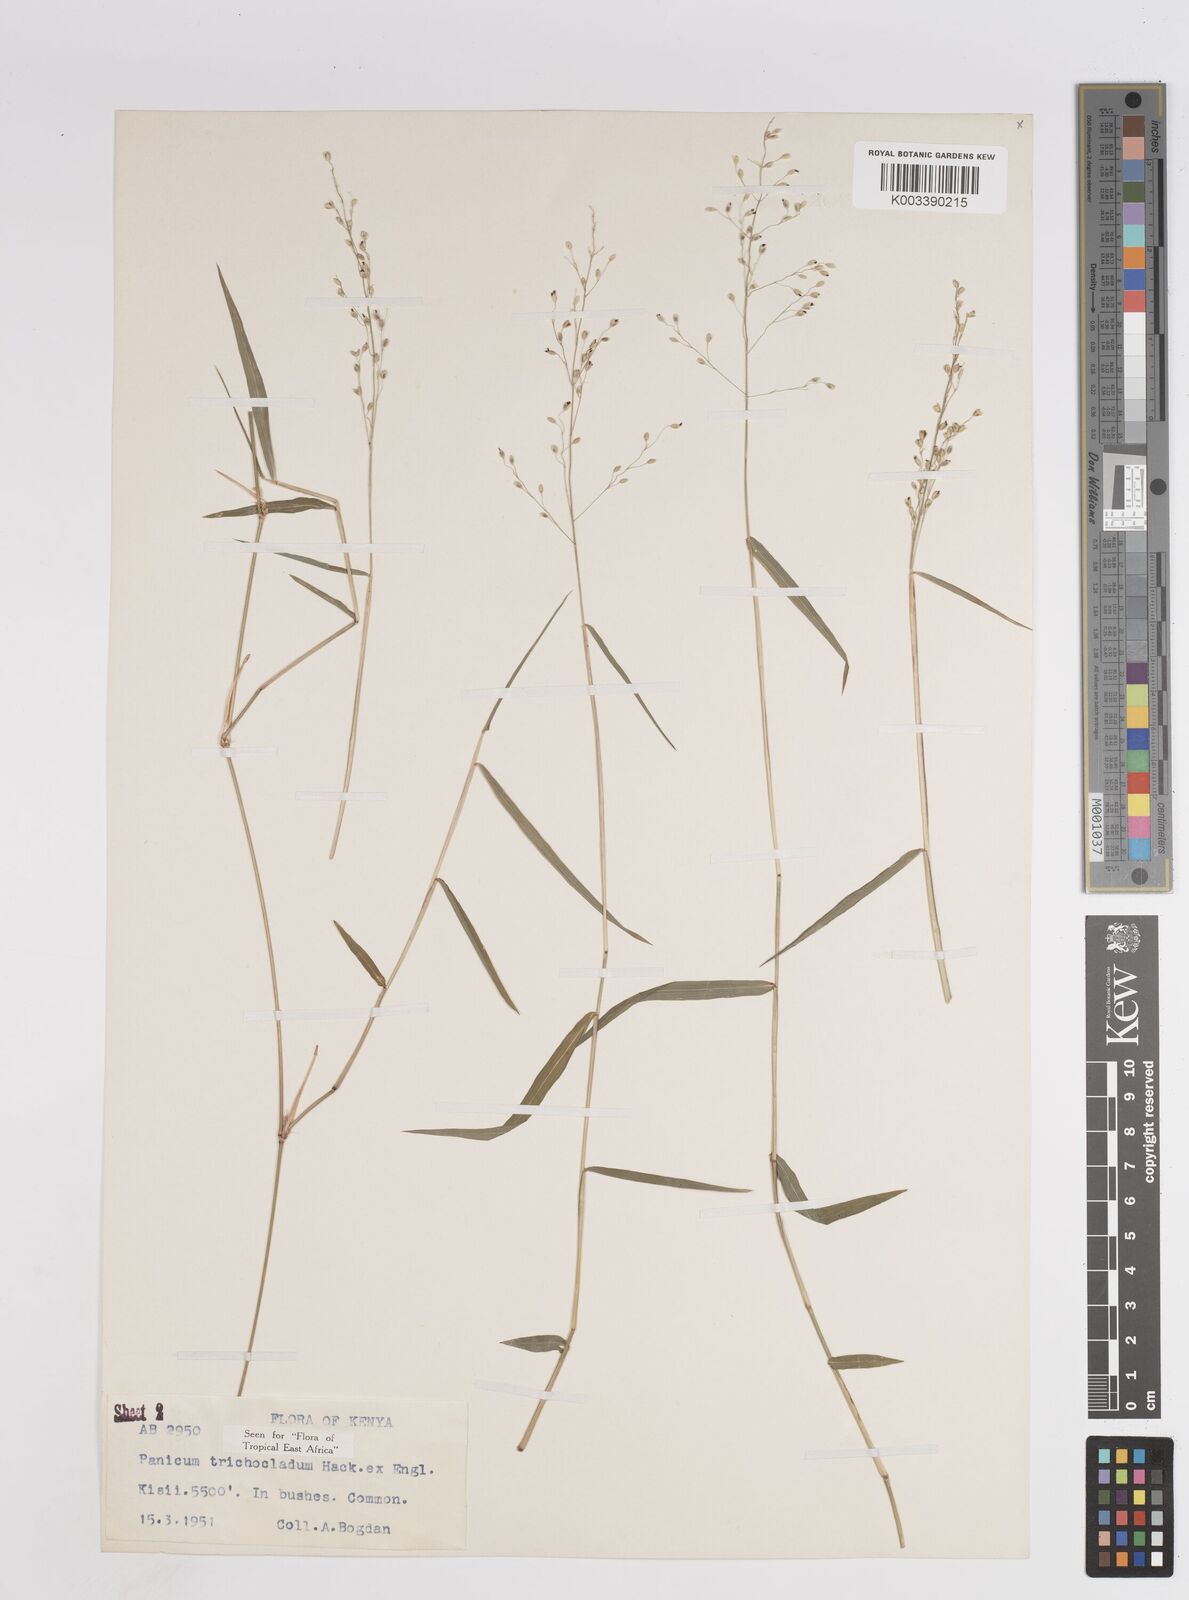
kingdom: Plantae
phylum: Tracheophyta
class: Liliopsida
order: Poales
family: Poaceae
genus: Panicum
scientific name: Panicum trichocladum
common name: Donkey grass
